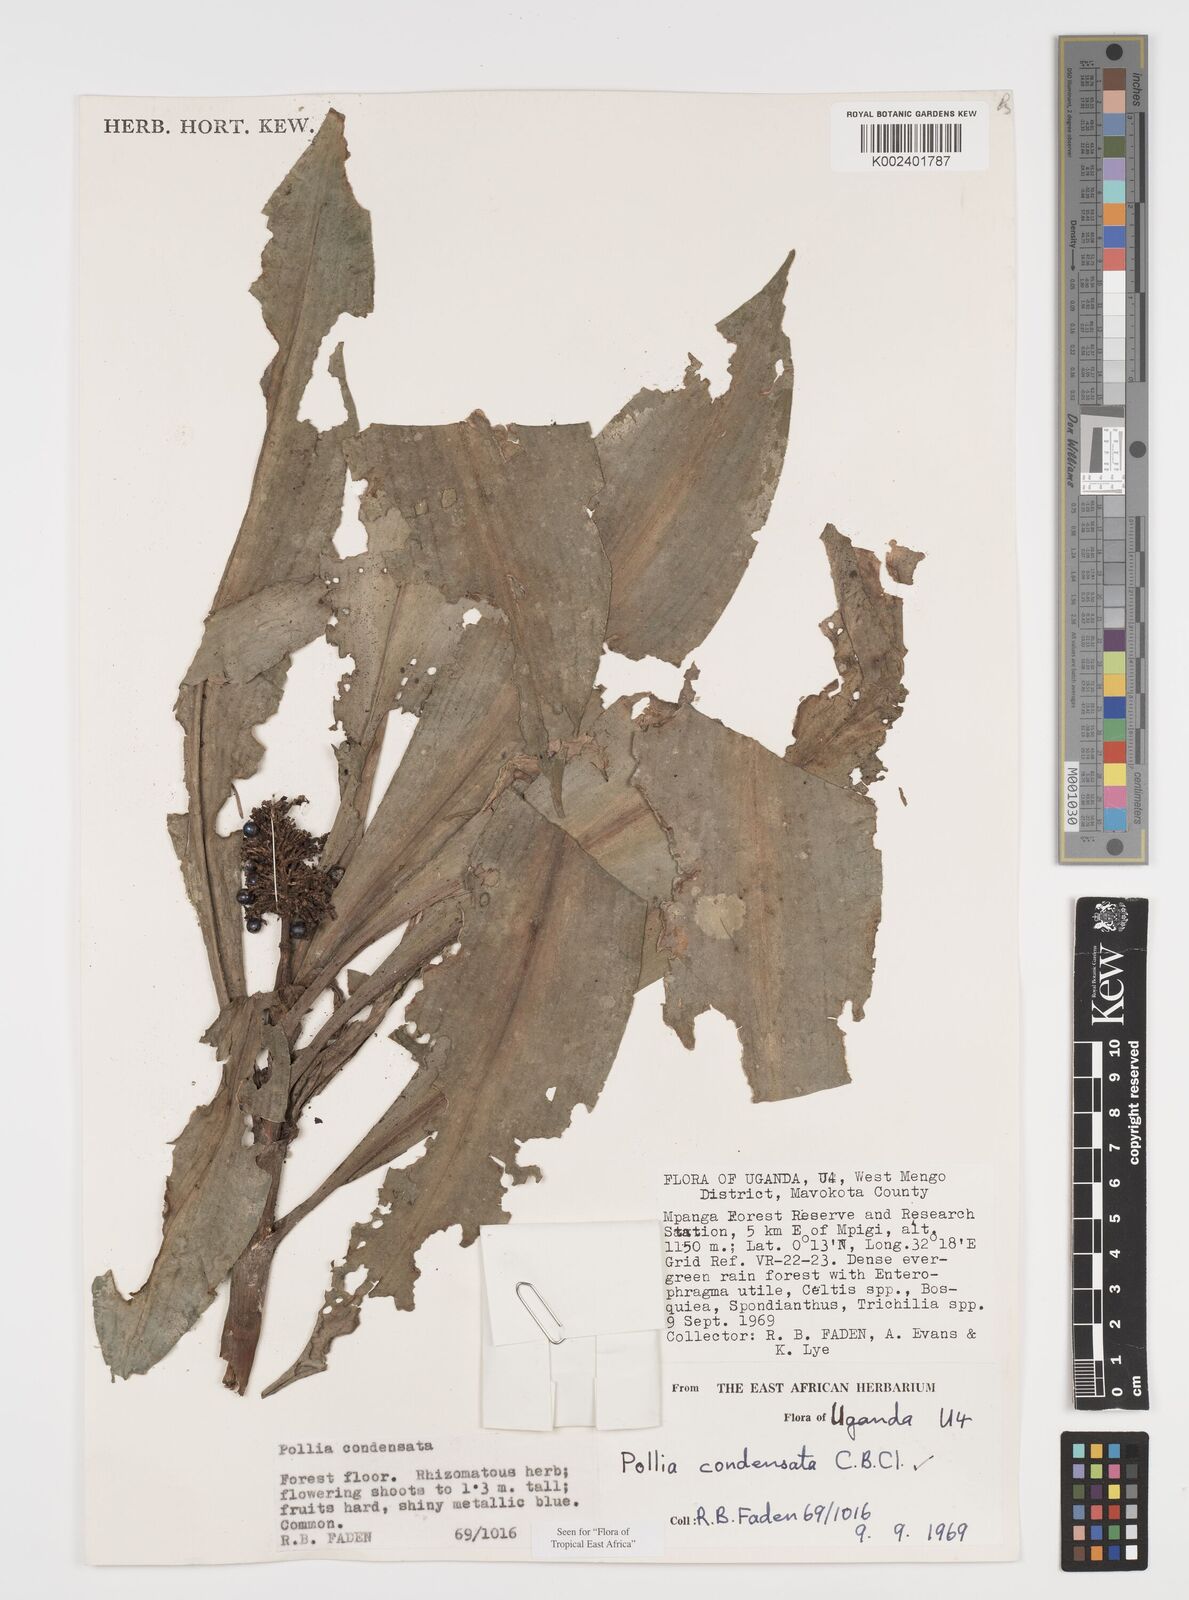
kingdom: Plantae
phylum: Tracheophyta
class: Liliopsida
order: Commelinales
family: Commelinaceae
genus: Pollia
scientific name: Pollia condensata
